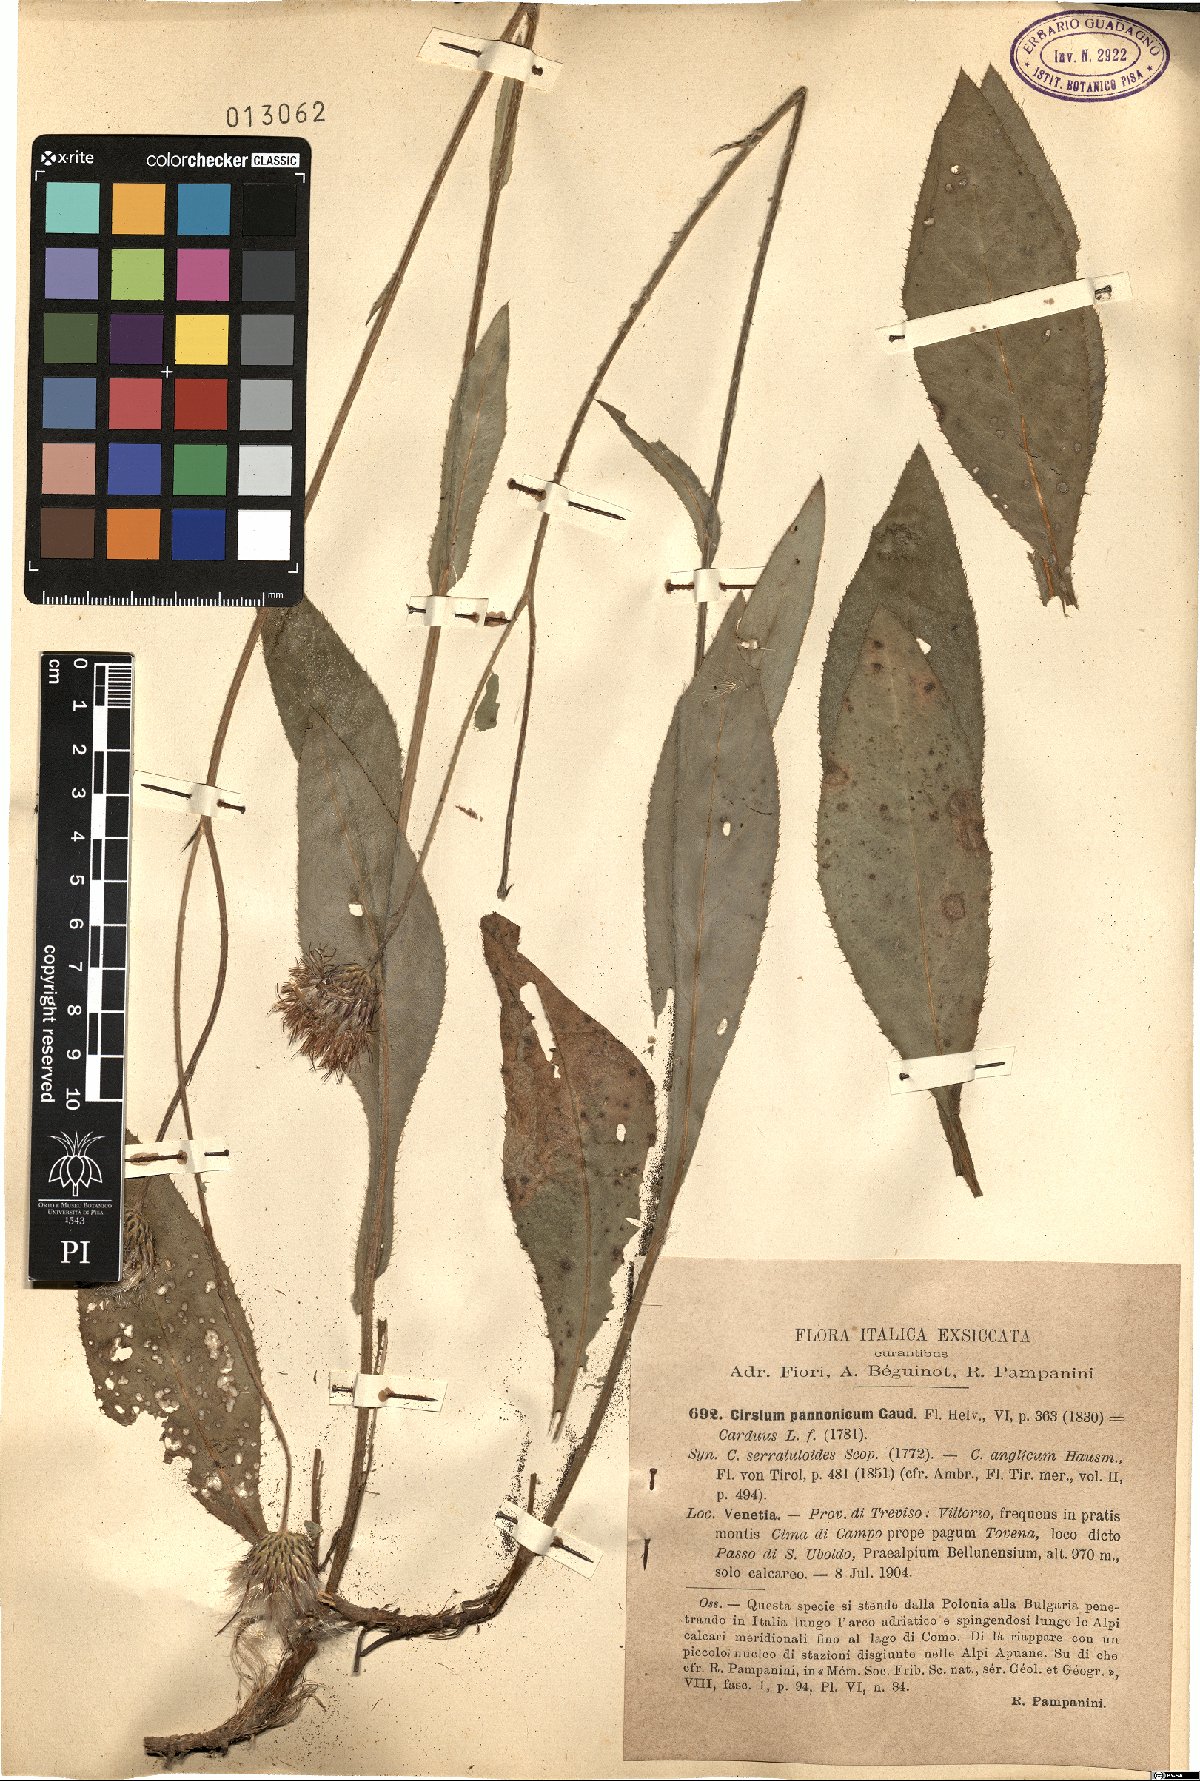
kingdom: Plantae
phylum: Tracheophyta
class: Magnoliopsida
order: Asterales
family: Asteraceae
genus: Cirsium
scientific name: Cirsium pannonicum
